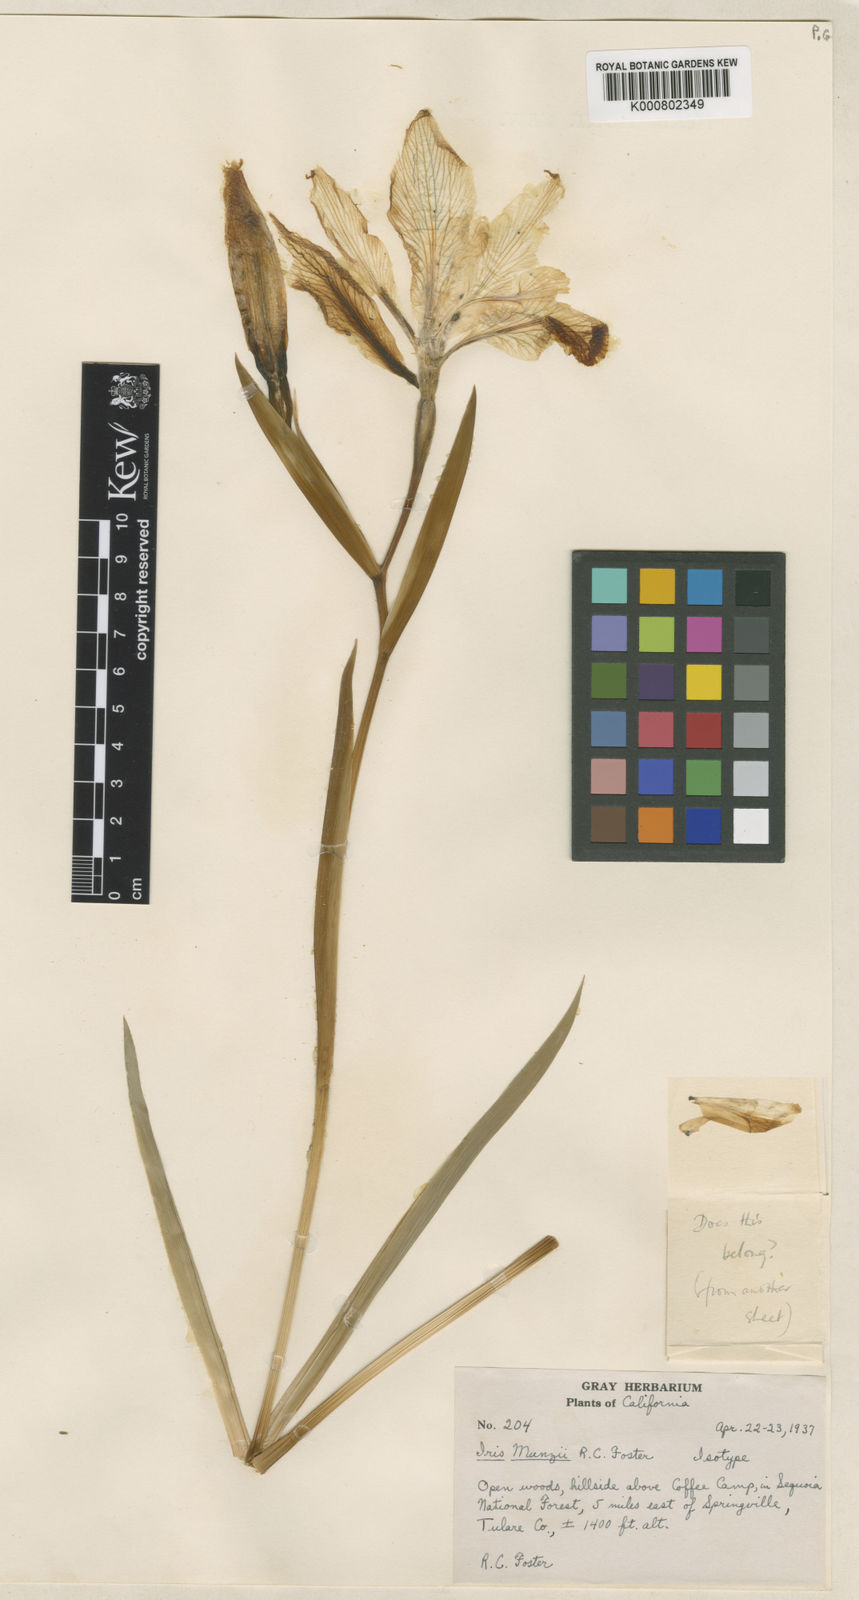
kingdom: Plantae
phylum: Tracheophyta
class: Liliopsida
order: Asparagales
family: Iridaceae
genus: Iris
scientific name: Iris munzii
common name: Munz's iris
